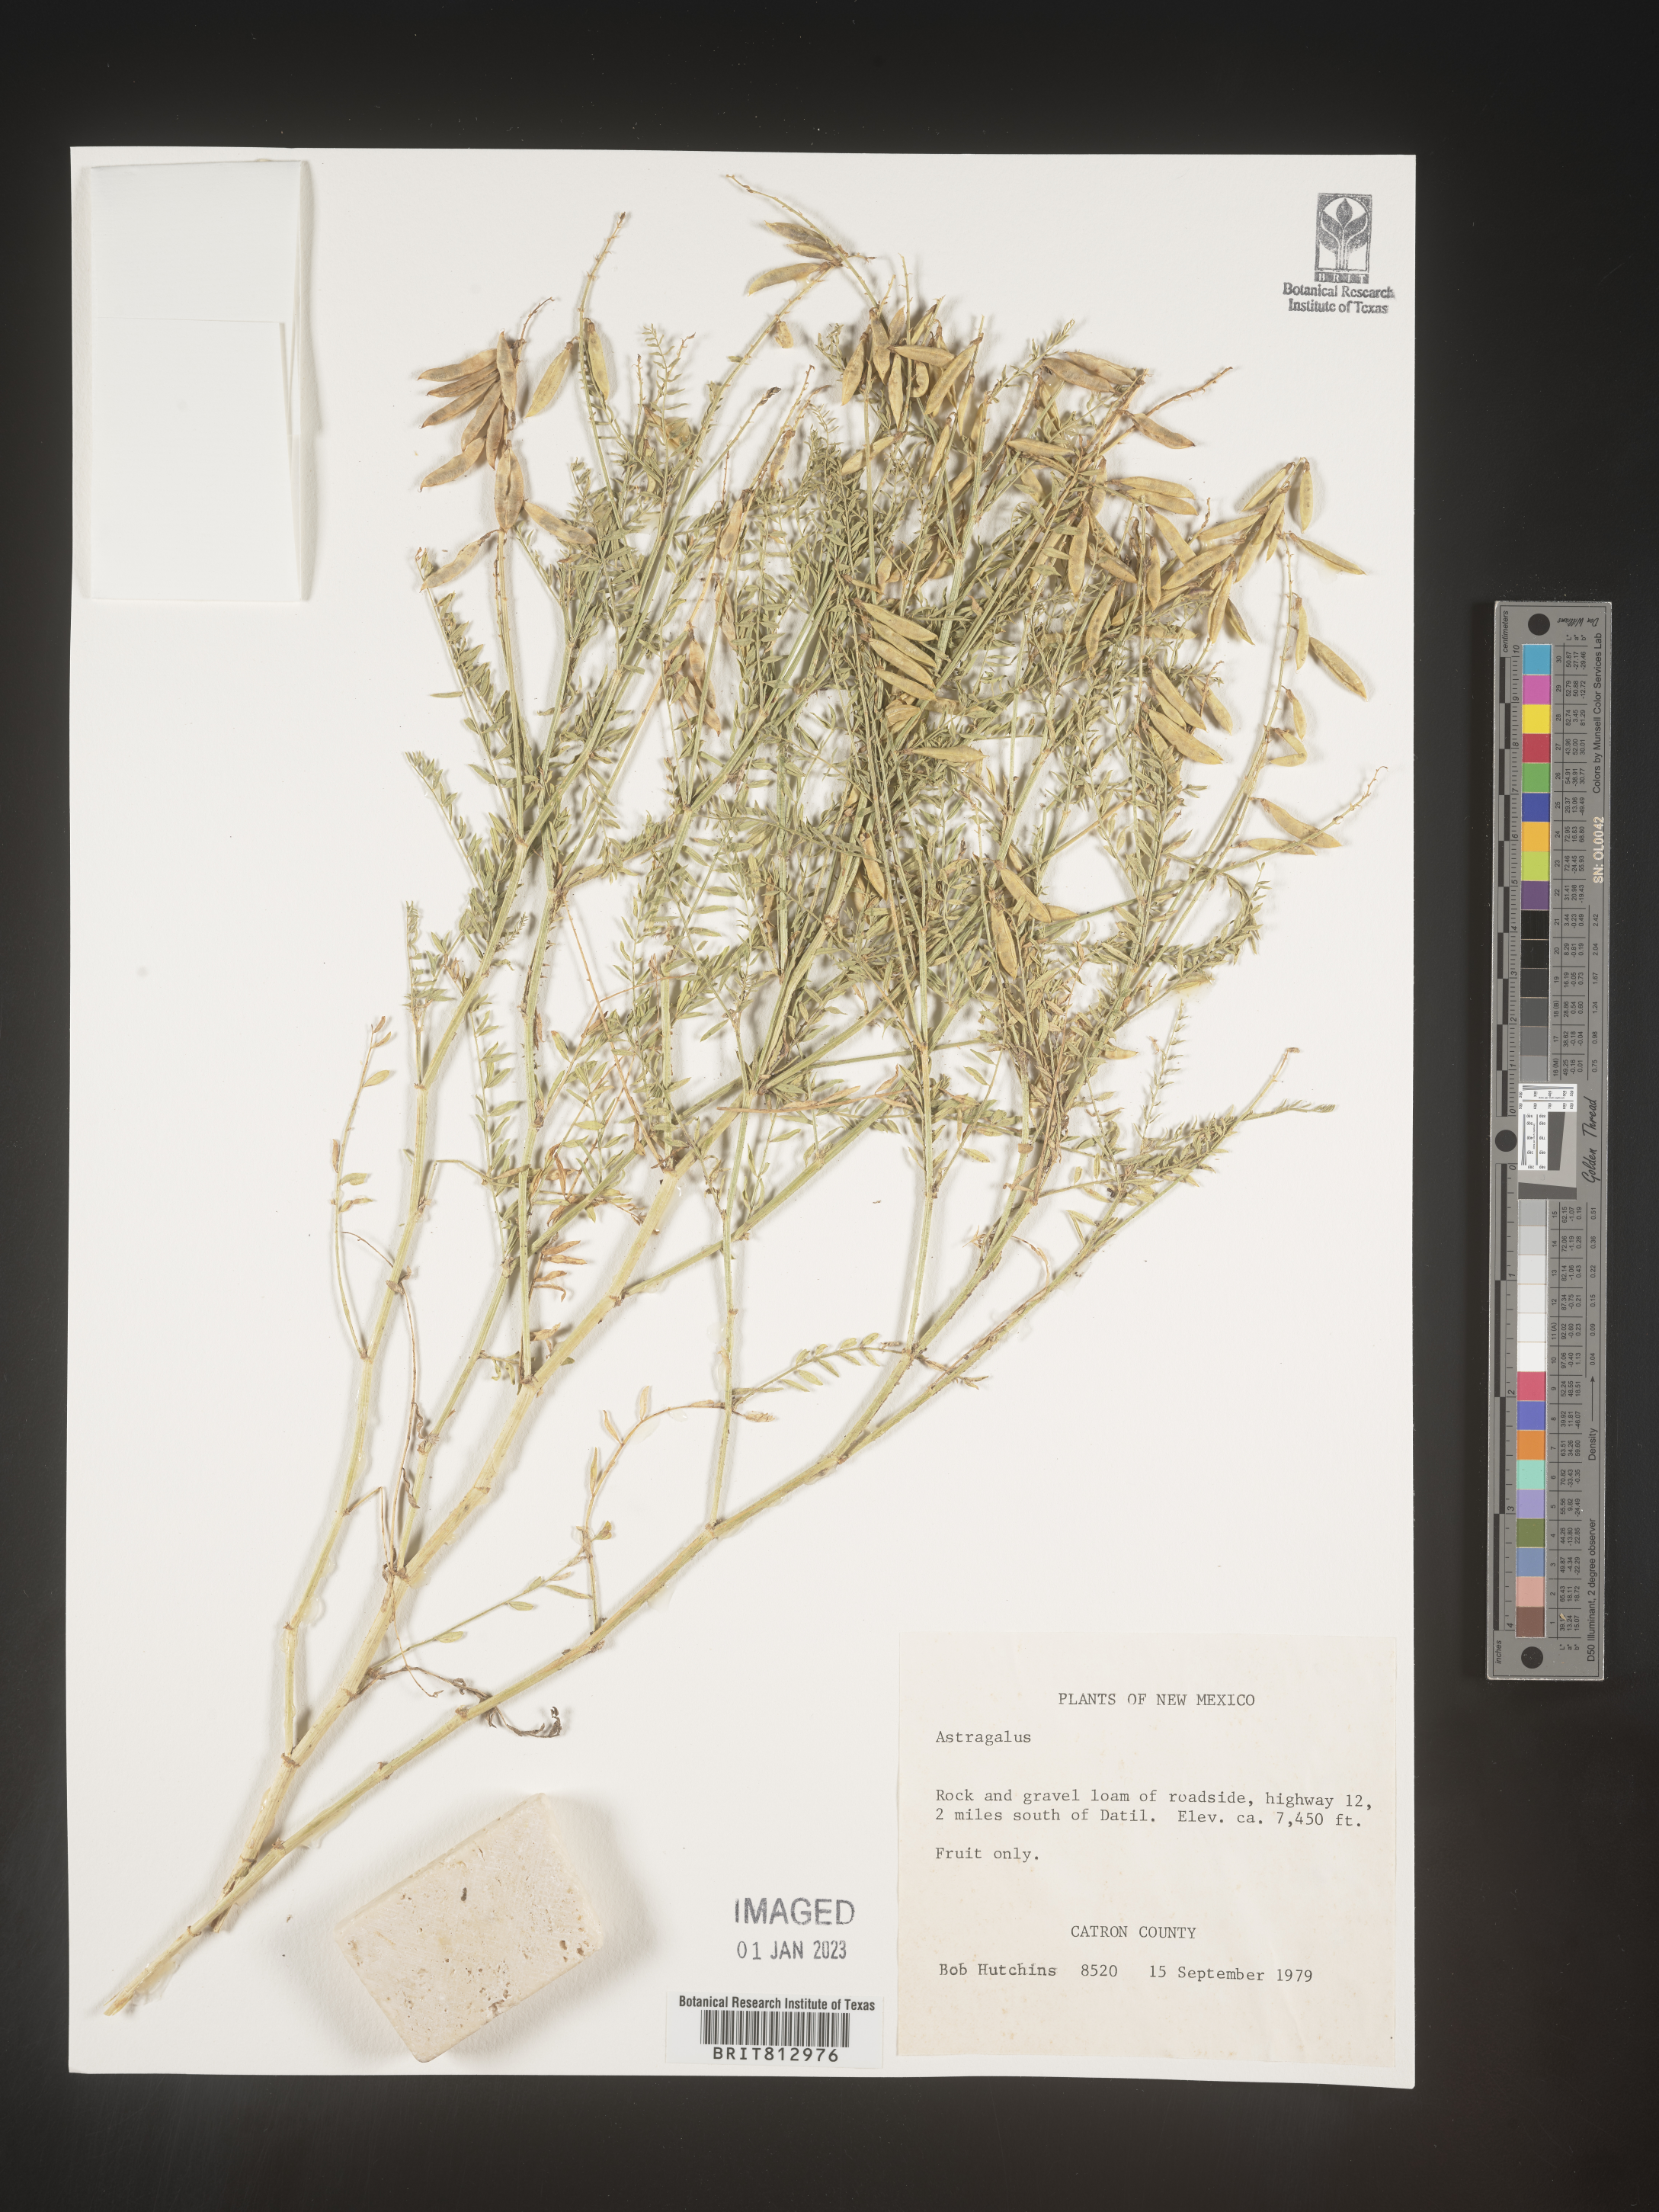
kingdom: Plantae
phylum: Tracheophyta
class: Magnoliopsida
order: Fabales
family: Fabaceae
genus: Astragalus
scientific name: Astragalus
